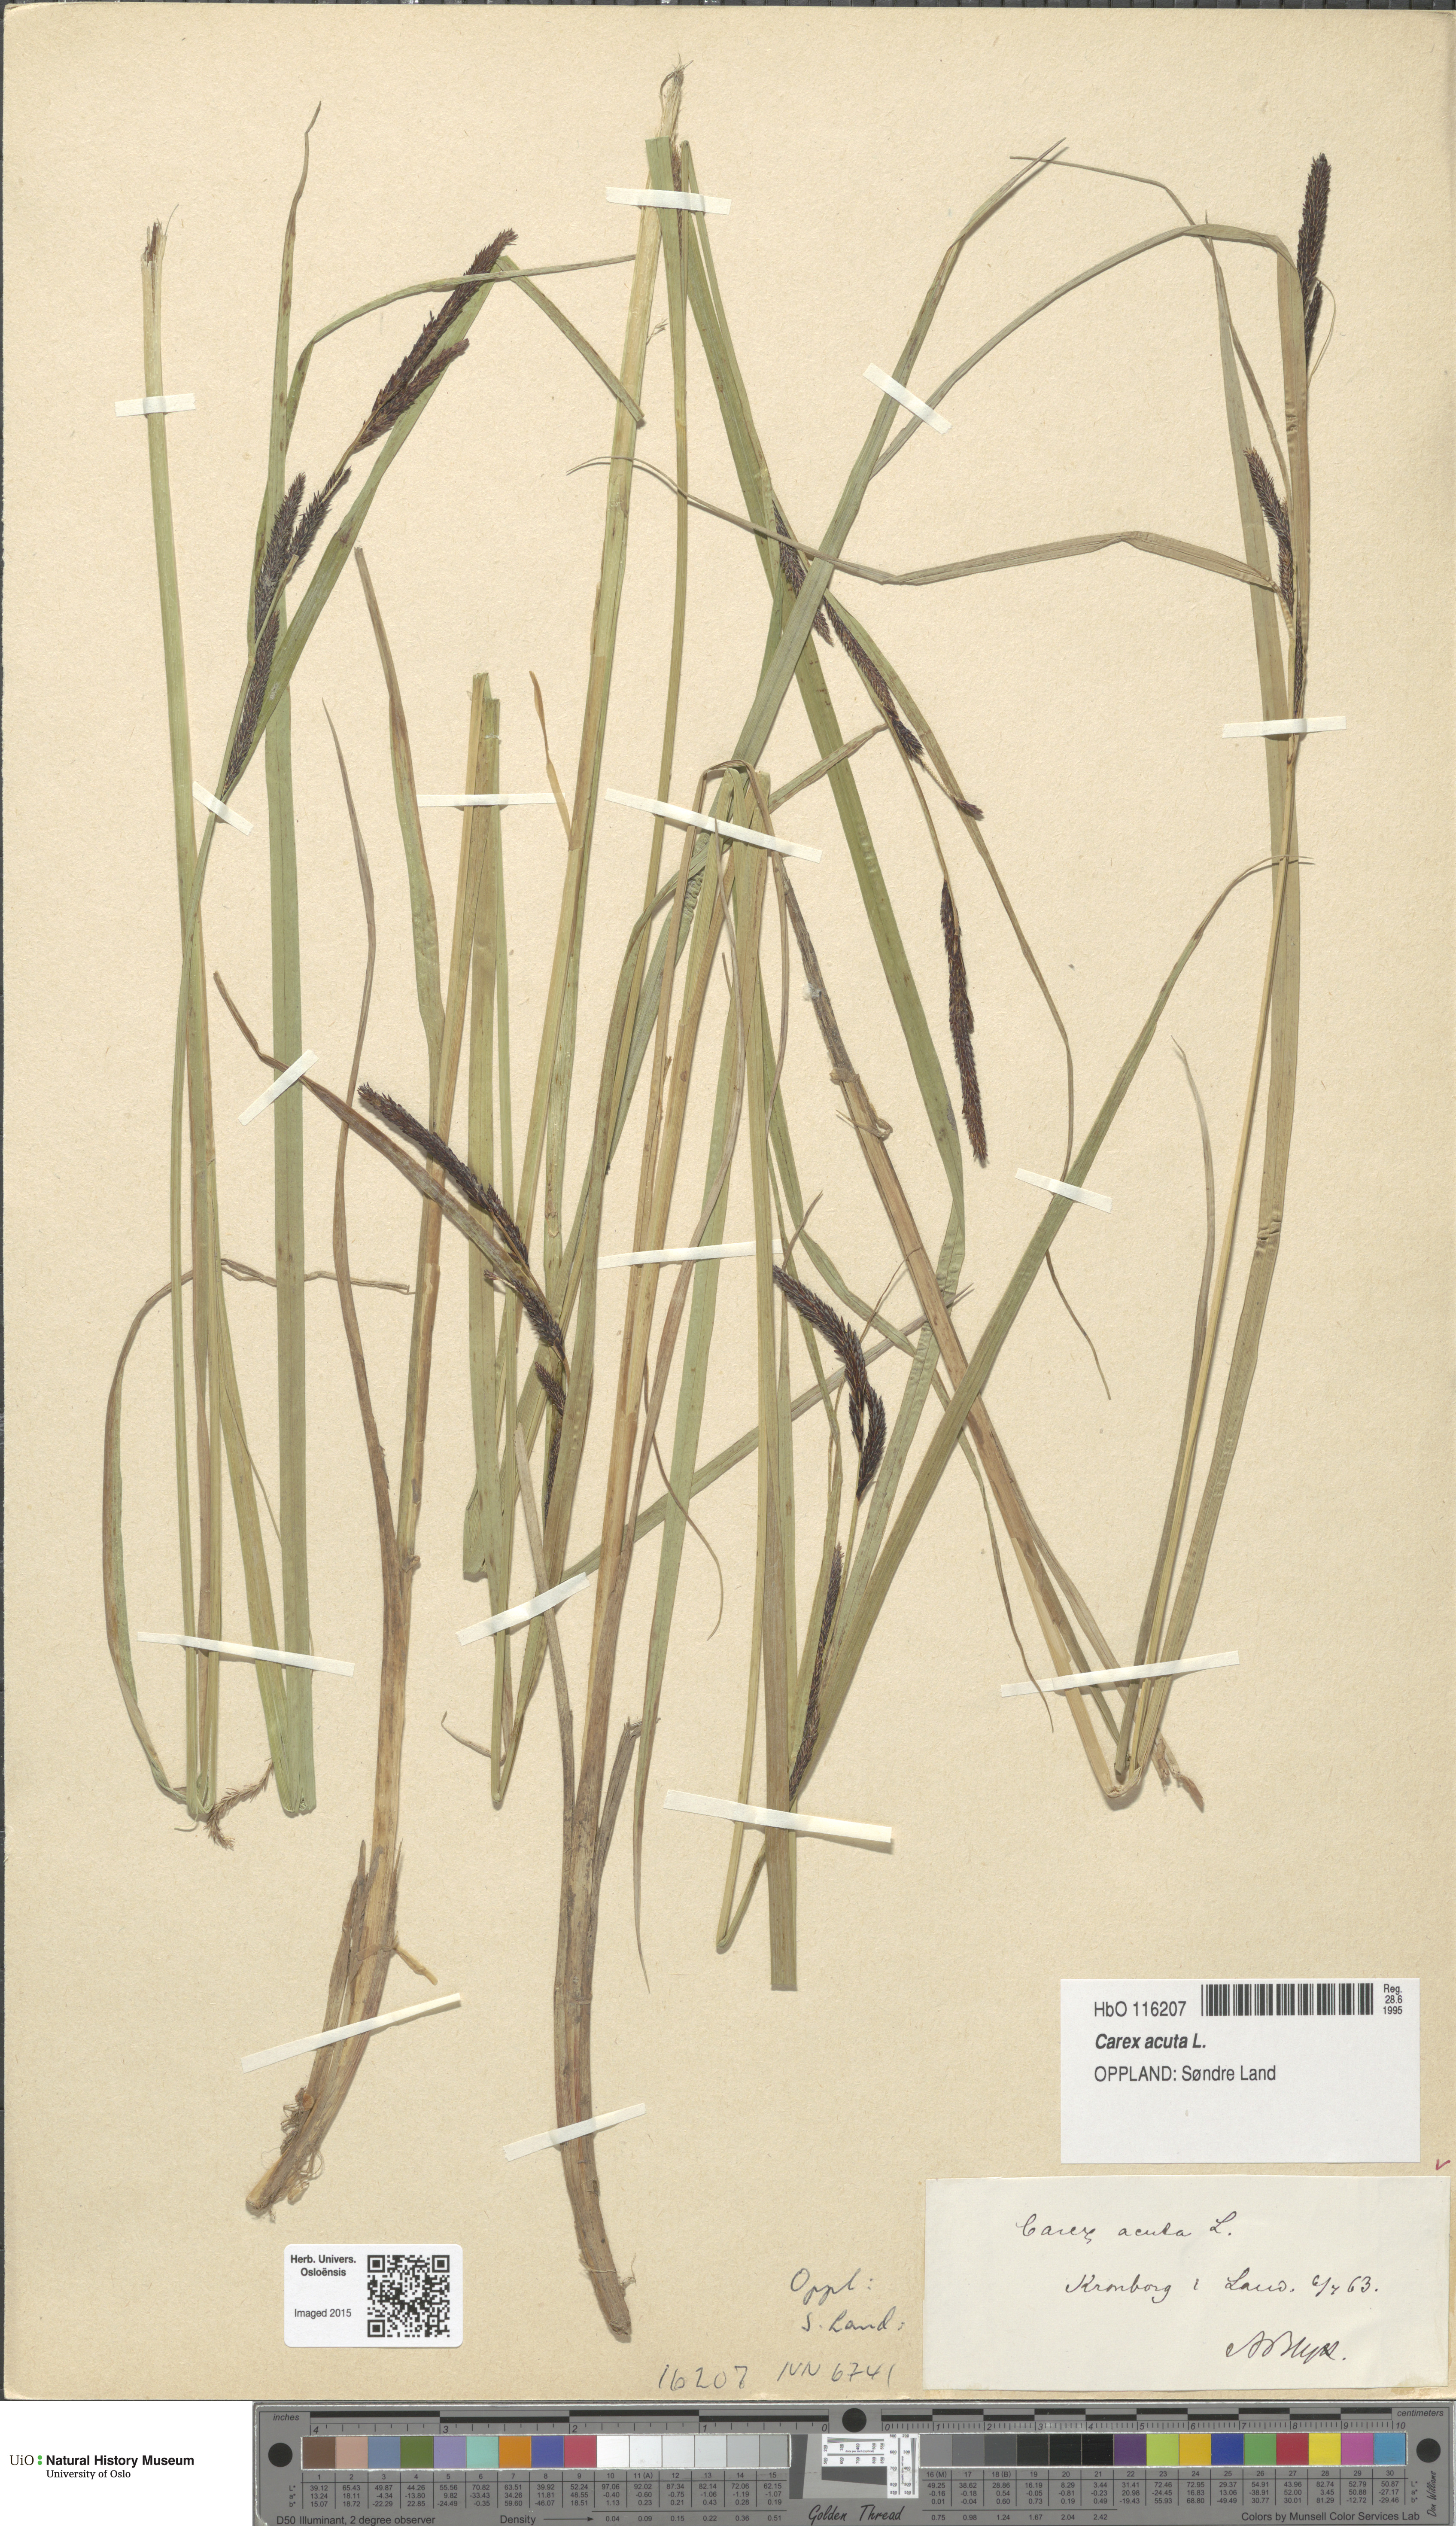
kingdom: Plantae
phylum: Tracheophyta
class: Liliopsida
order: Poales
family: Cyperaceae
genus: Carex
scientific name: Carex acuta
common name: Slender tufted-sedge
